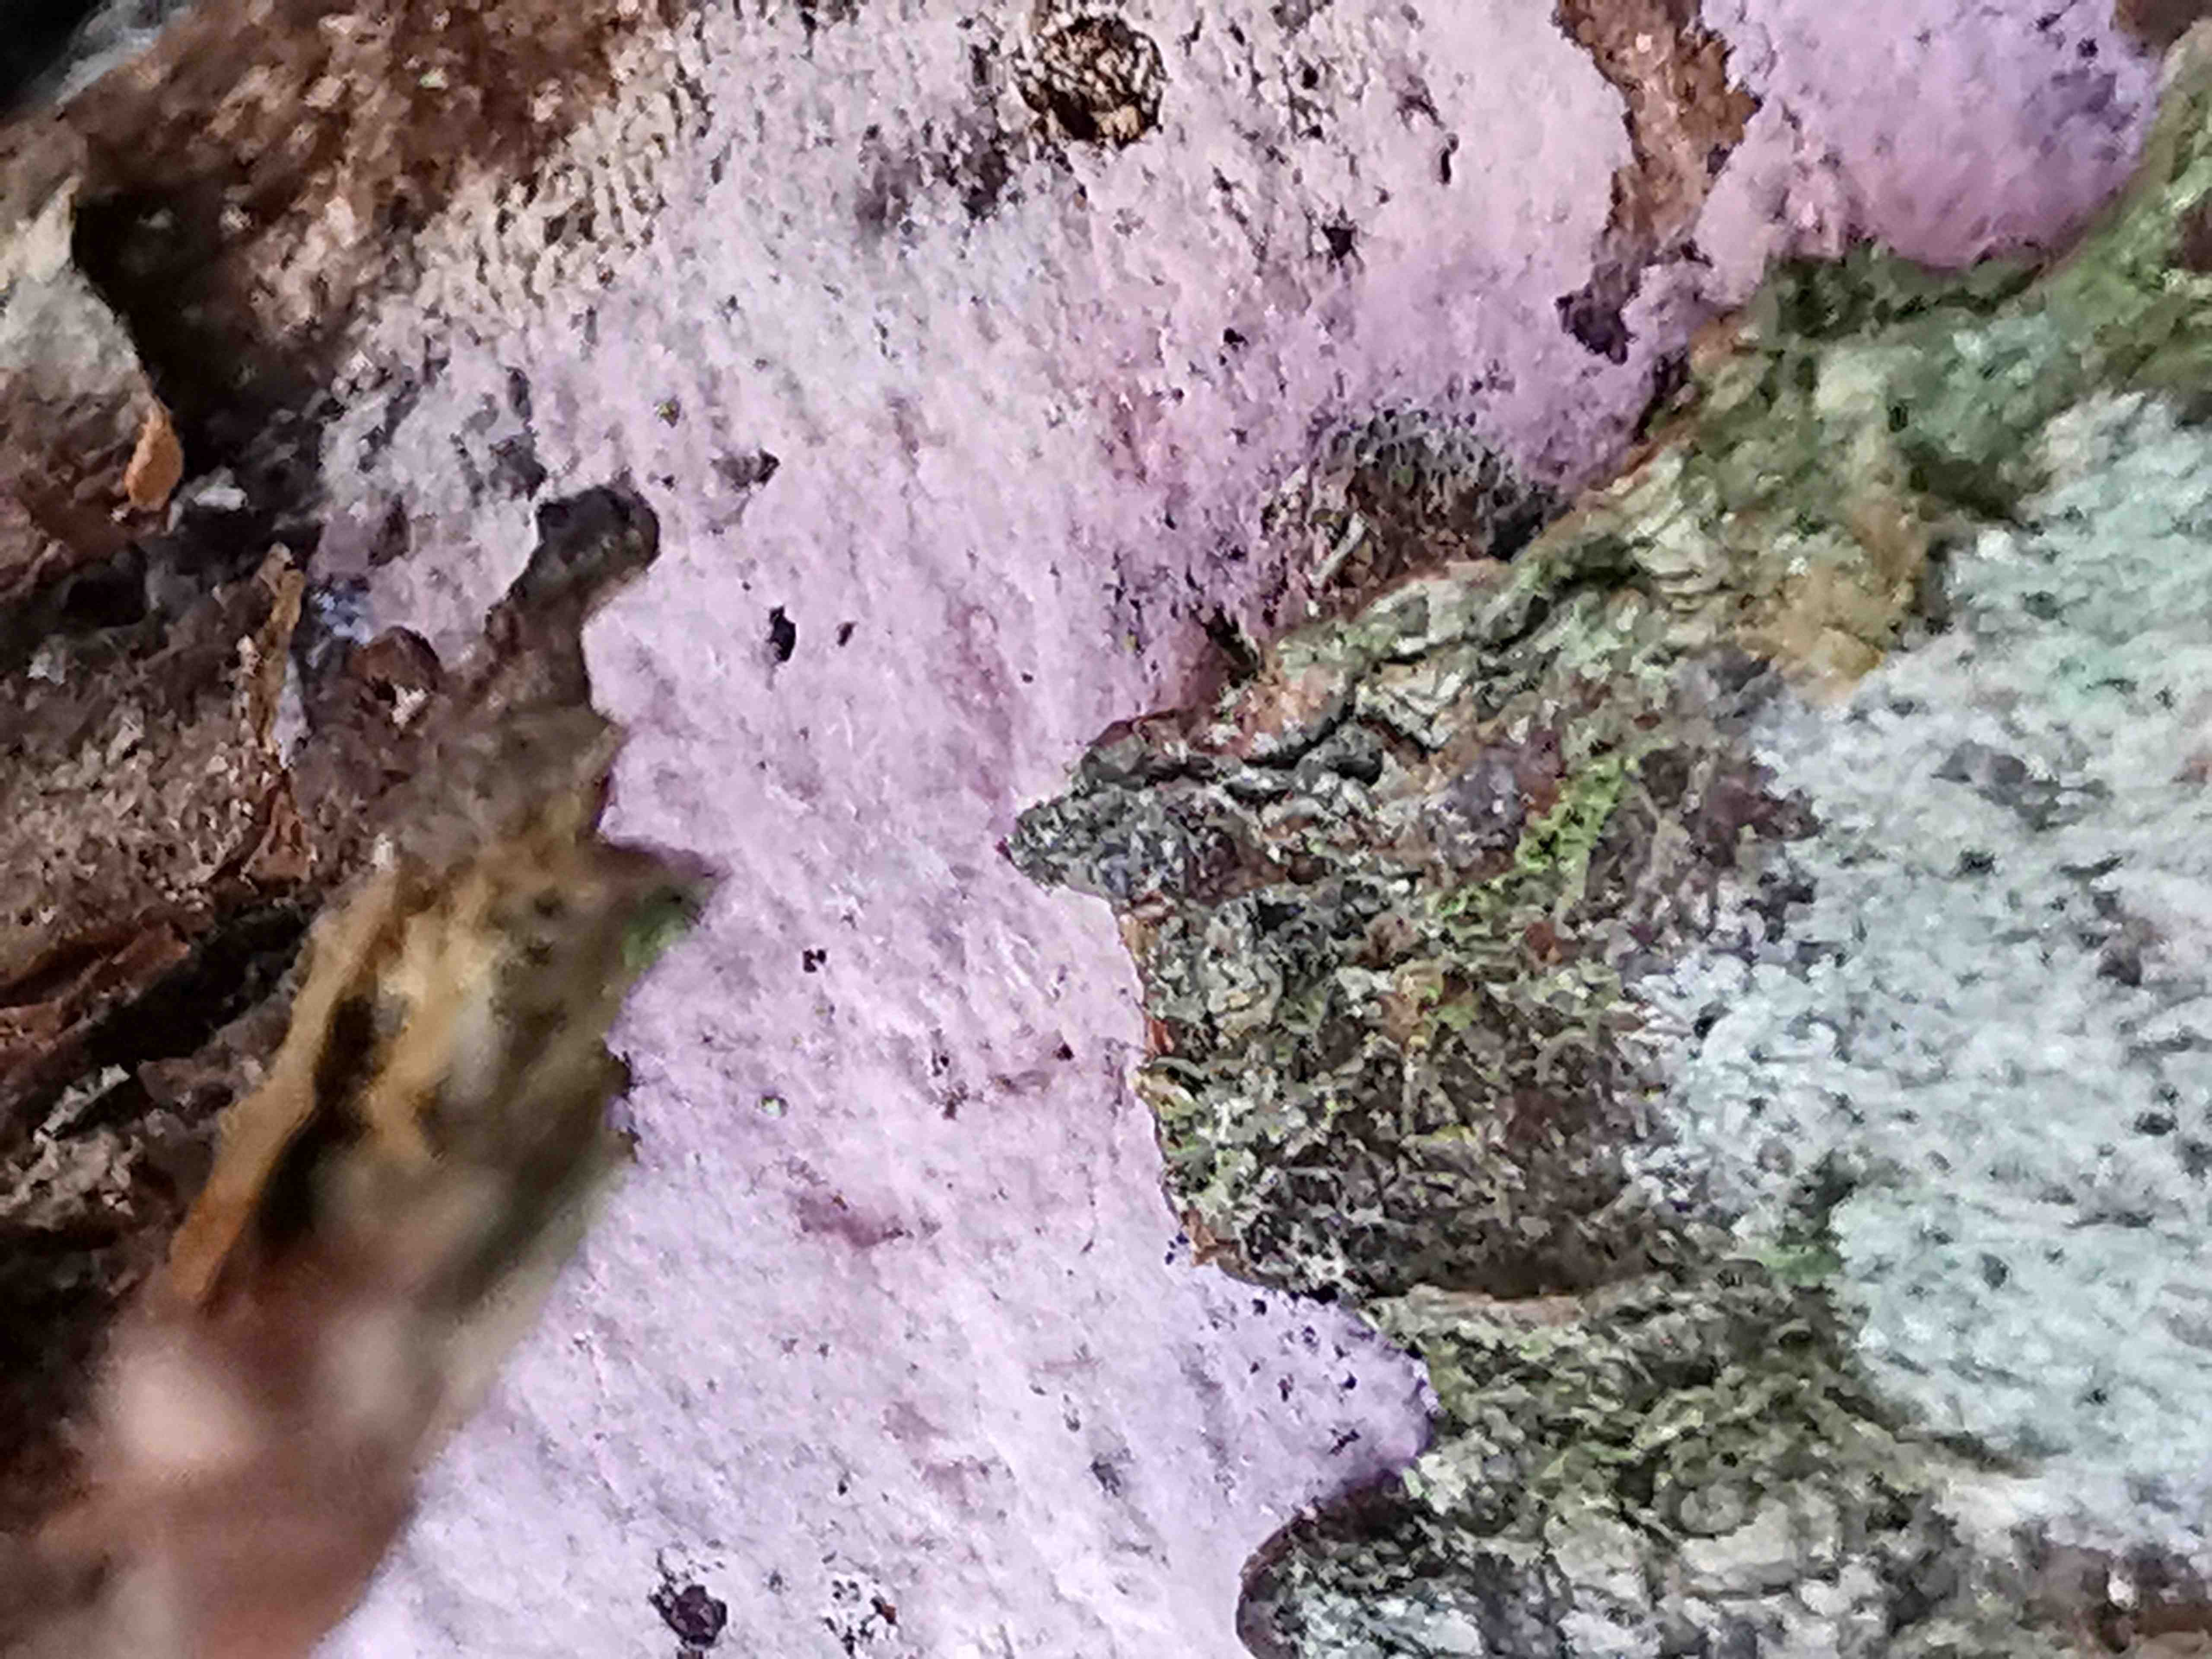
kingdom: Fungi
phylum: Basidiomycota
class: Agaricomycetes
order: Cantharellales
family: Tulasnellaceae
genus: Tulasnella
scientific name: Tulasnella violea
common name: violet ballonhinde
